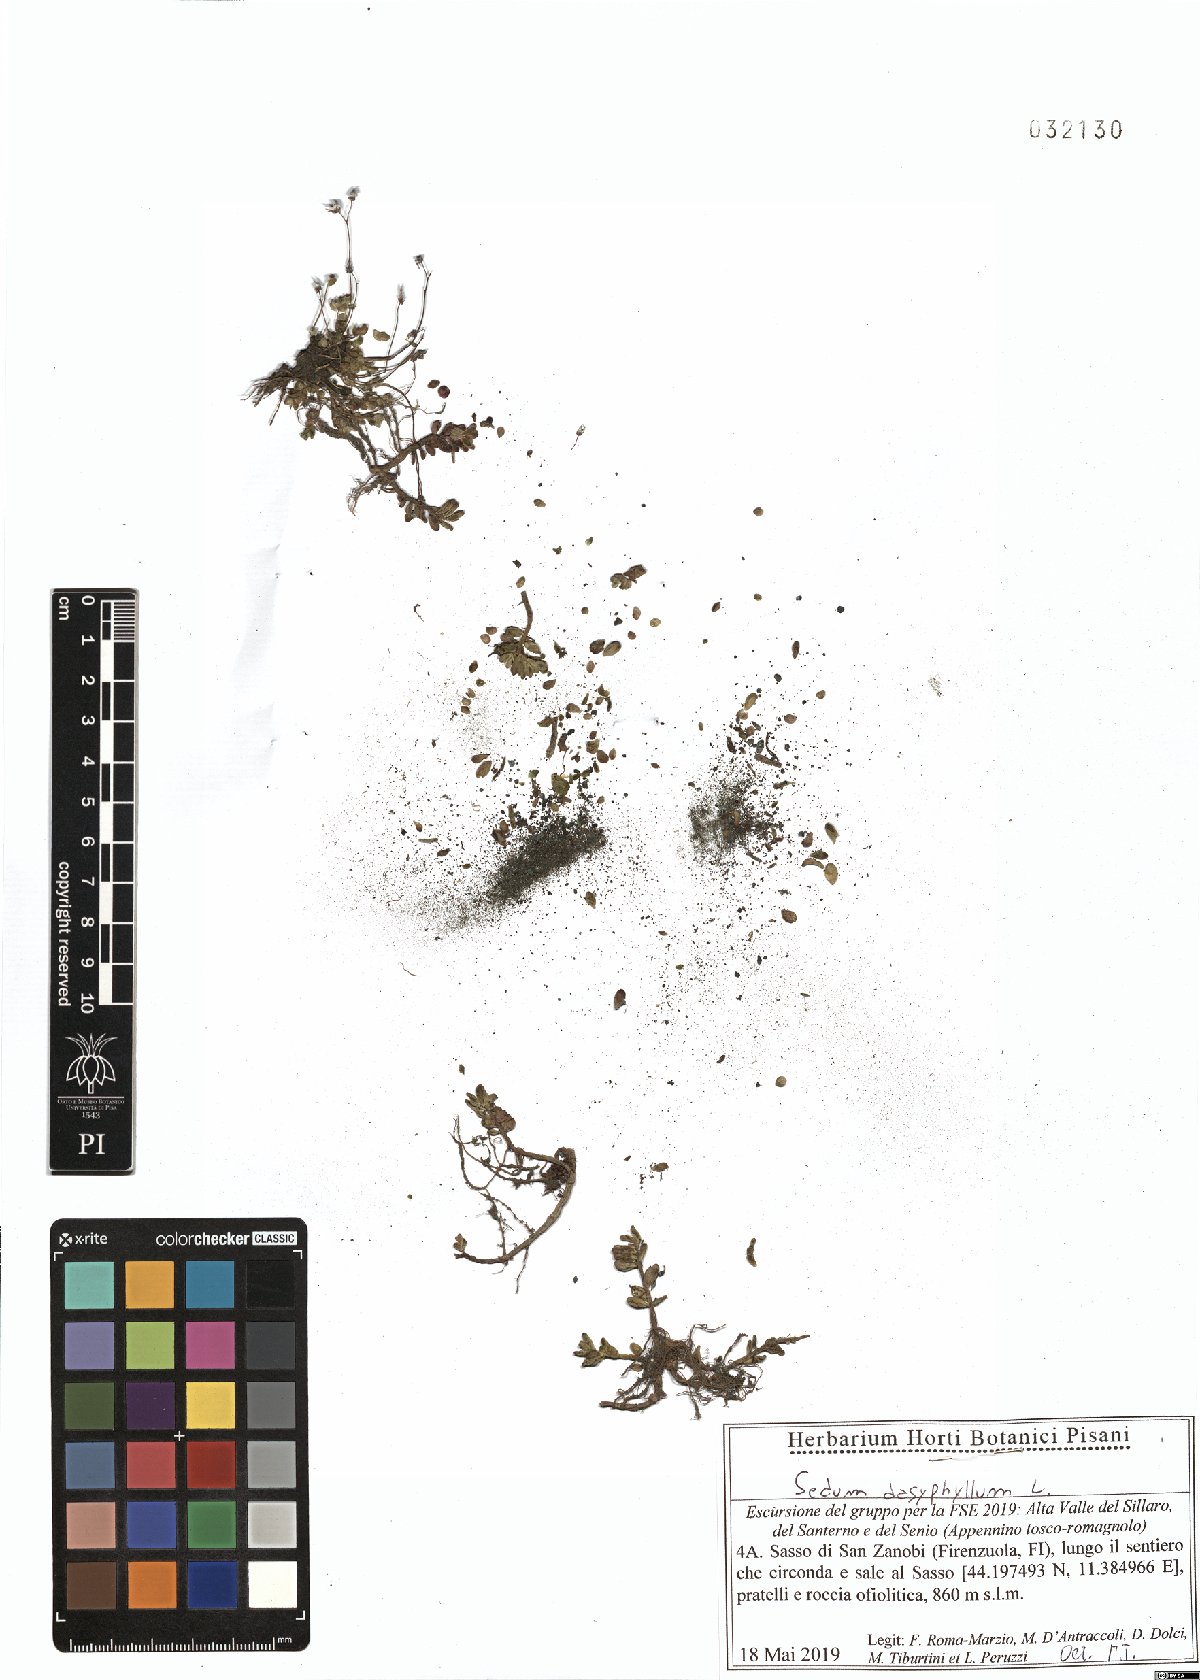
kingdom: Plantae
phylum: Tracheophyta
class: Magnoliopsida
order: Saxifragales
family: Crassulaceae
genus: Sedum
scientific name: Sedum dasyphyllum
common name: Thick-leaf stonecrop
